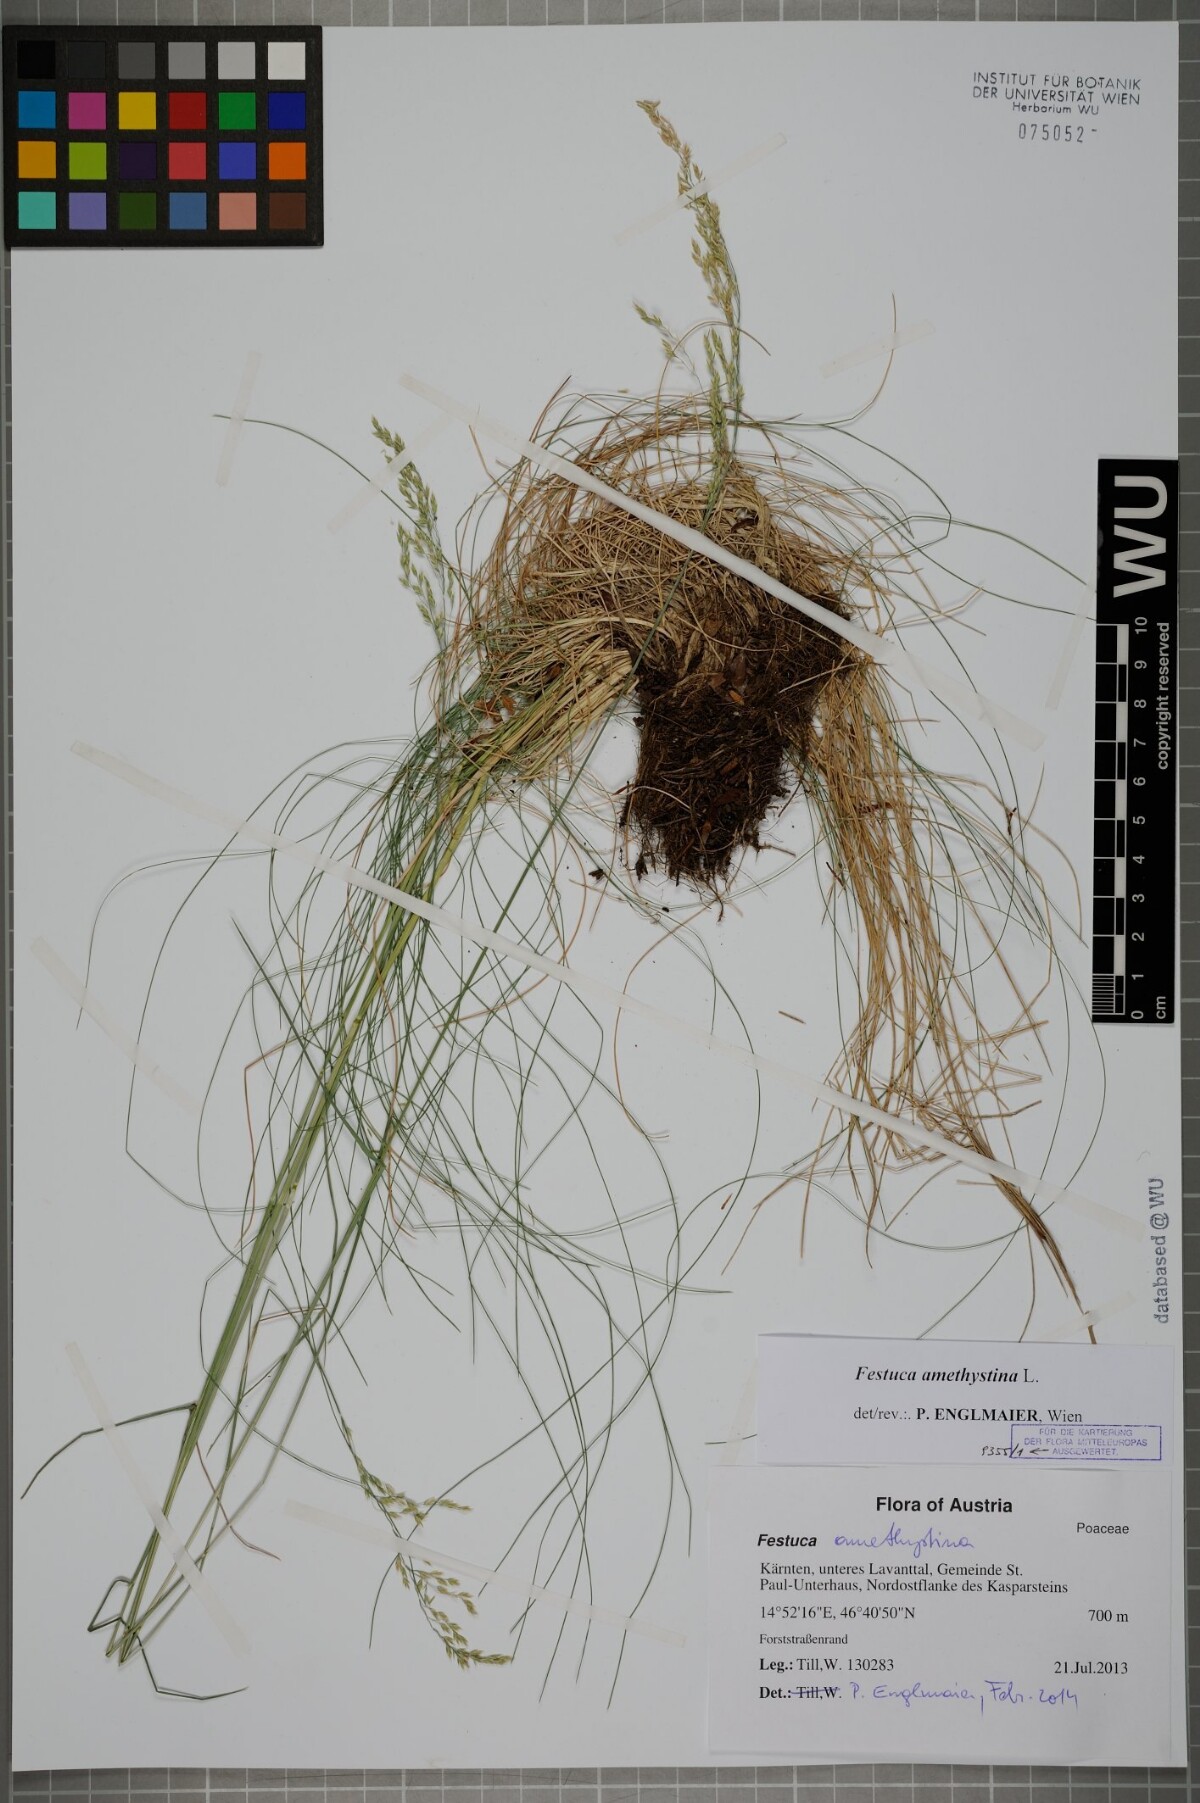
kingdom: Plantae
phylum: Tracheophyta
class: Liliopsida
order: Poales
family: Poaceae
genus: Festuca
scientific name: Festuca amethystina
